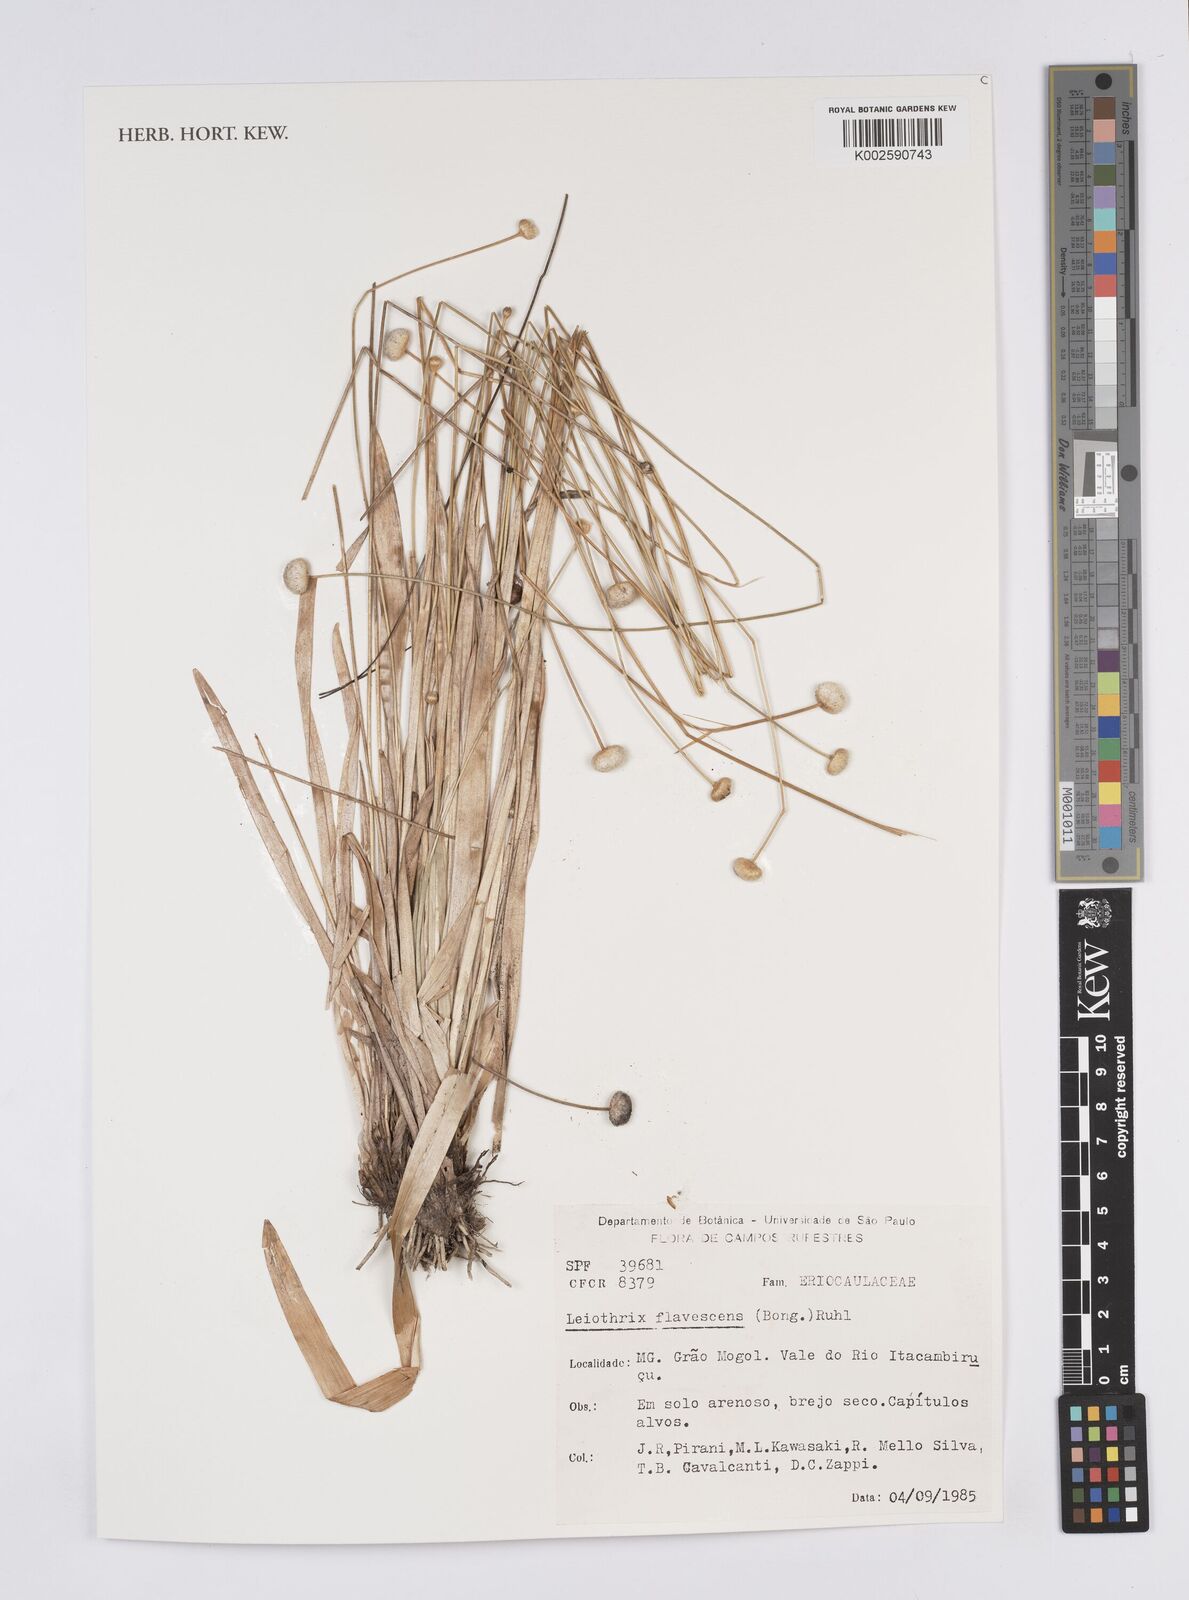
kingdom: Plantae
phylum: Tracheophyta
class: Liliopsida
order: Poales
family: Eriocaulaceae
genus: Leiothrix
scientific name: Leiothrix flavescens
